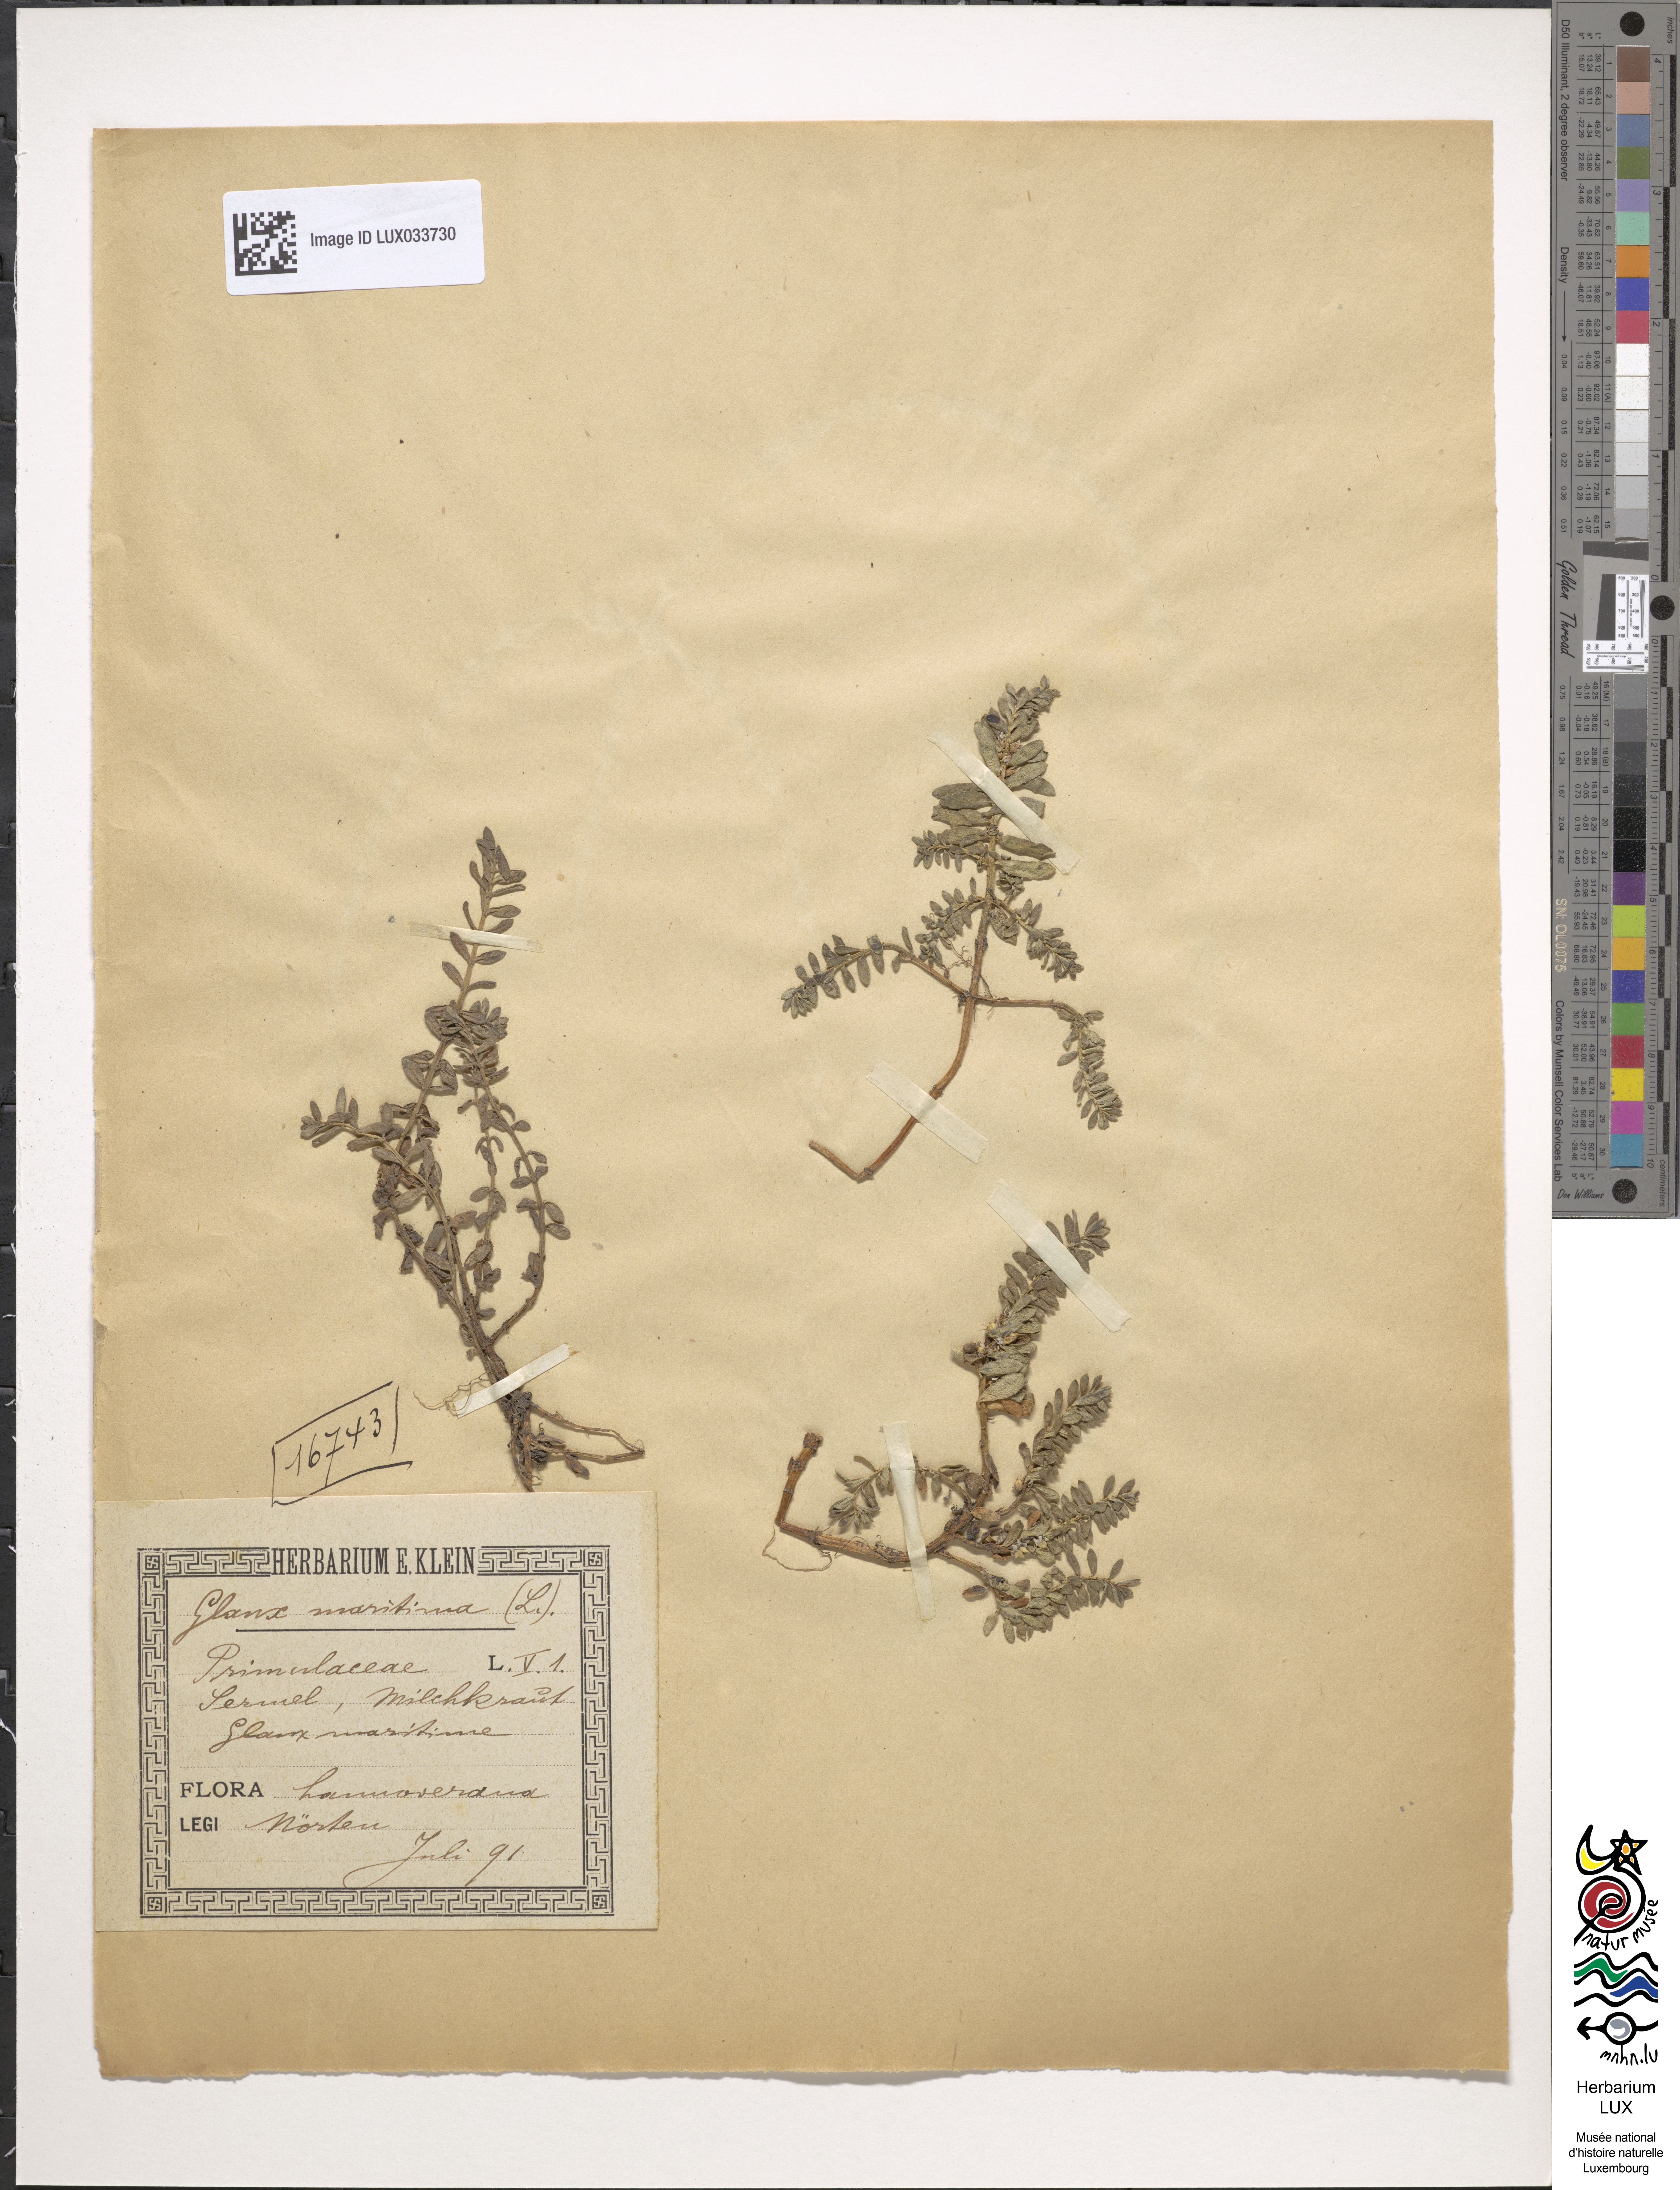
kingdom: Plantae
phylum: Tracheophyta
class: Magnoliopsida
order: Ericales
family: Primulaceae
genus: Lysimachia
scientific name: Lysimachia maritima
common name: Sea milkwort
